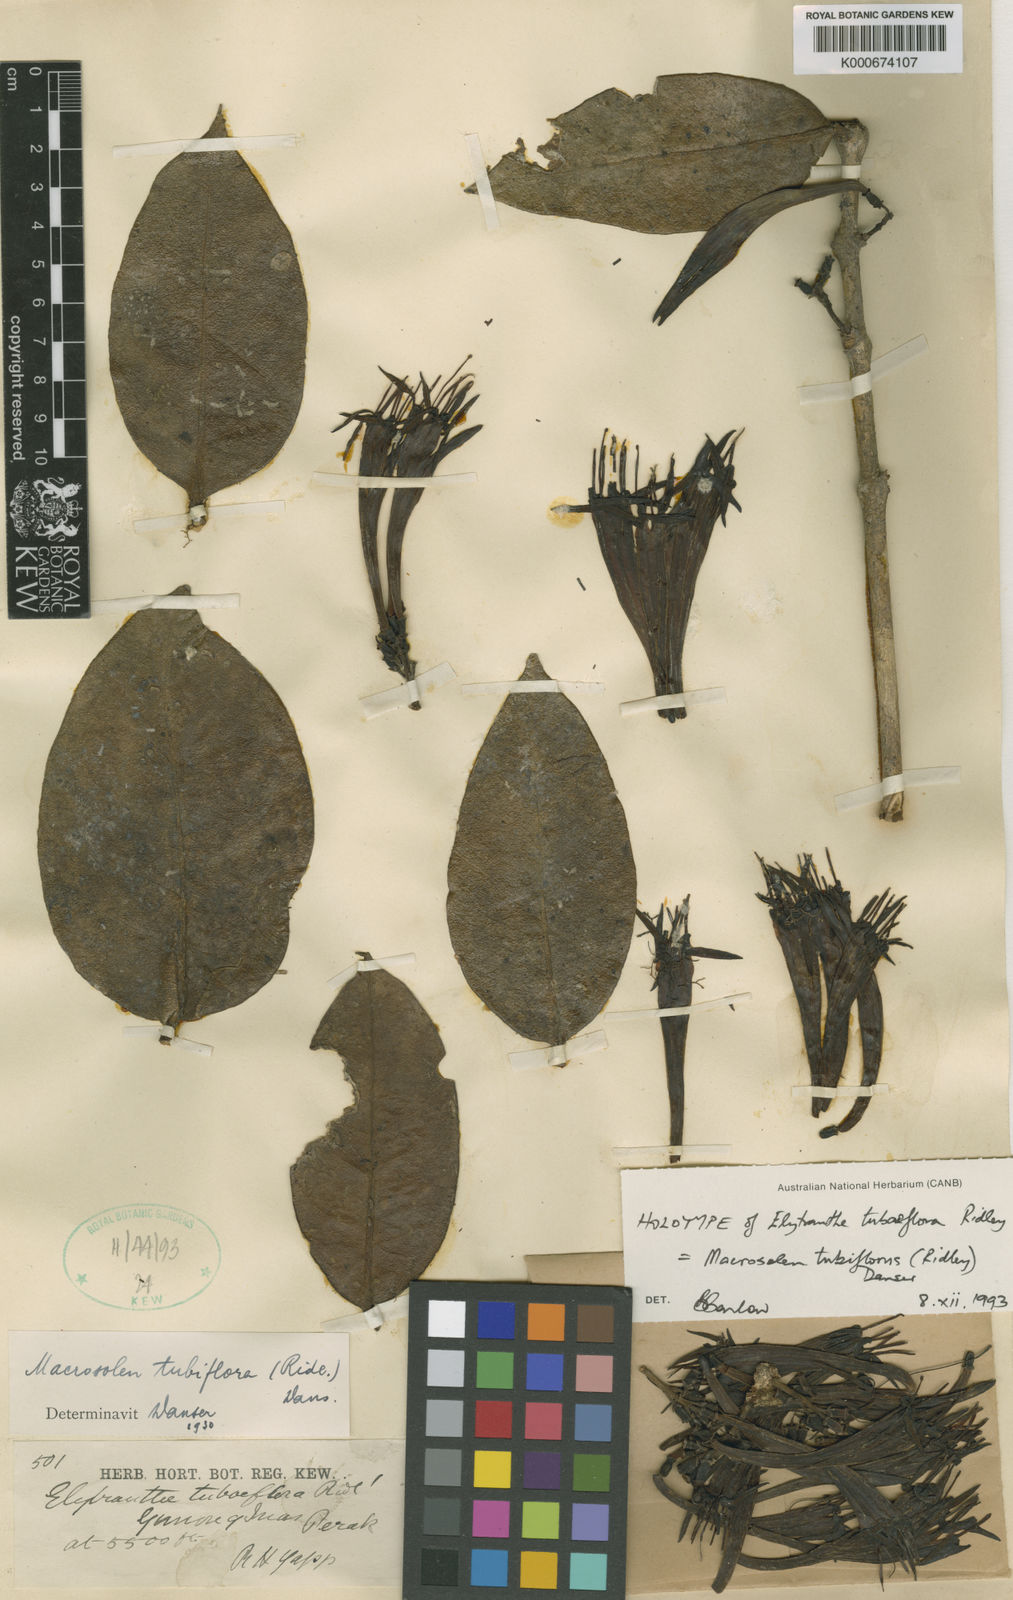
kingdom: Plantae
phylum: Tracheophyta
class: Magnoliopsida
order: Santalales
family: Loranthaceae
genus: Macrosolen
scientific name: Macrosolen tubiflorus
